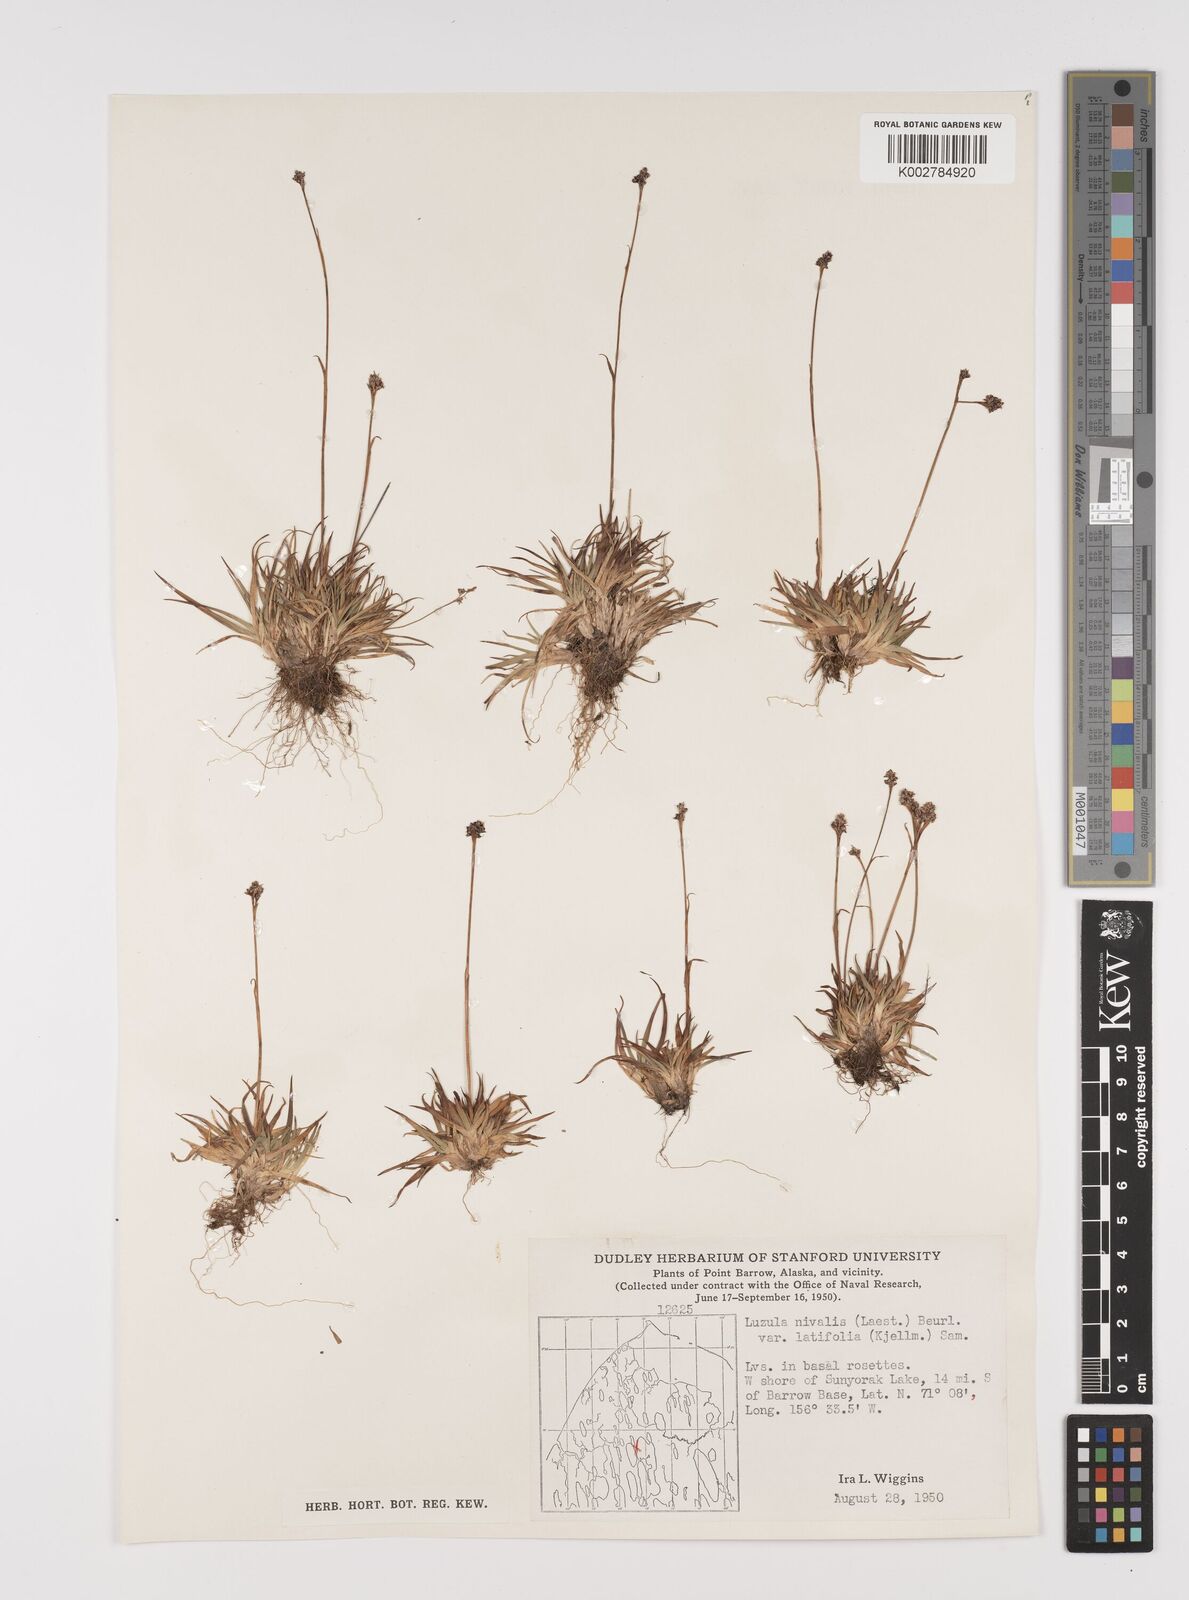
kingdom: Plantae
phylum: Tracheophyta
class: Liliopsida
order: Poales
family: Juncaceae
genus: Luzula
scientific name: Luzula nivalis
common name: Arctic woodrush
